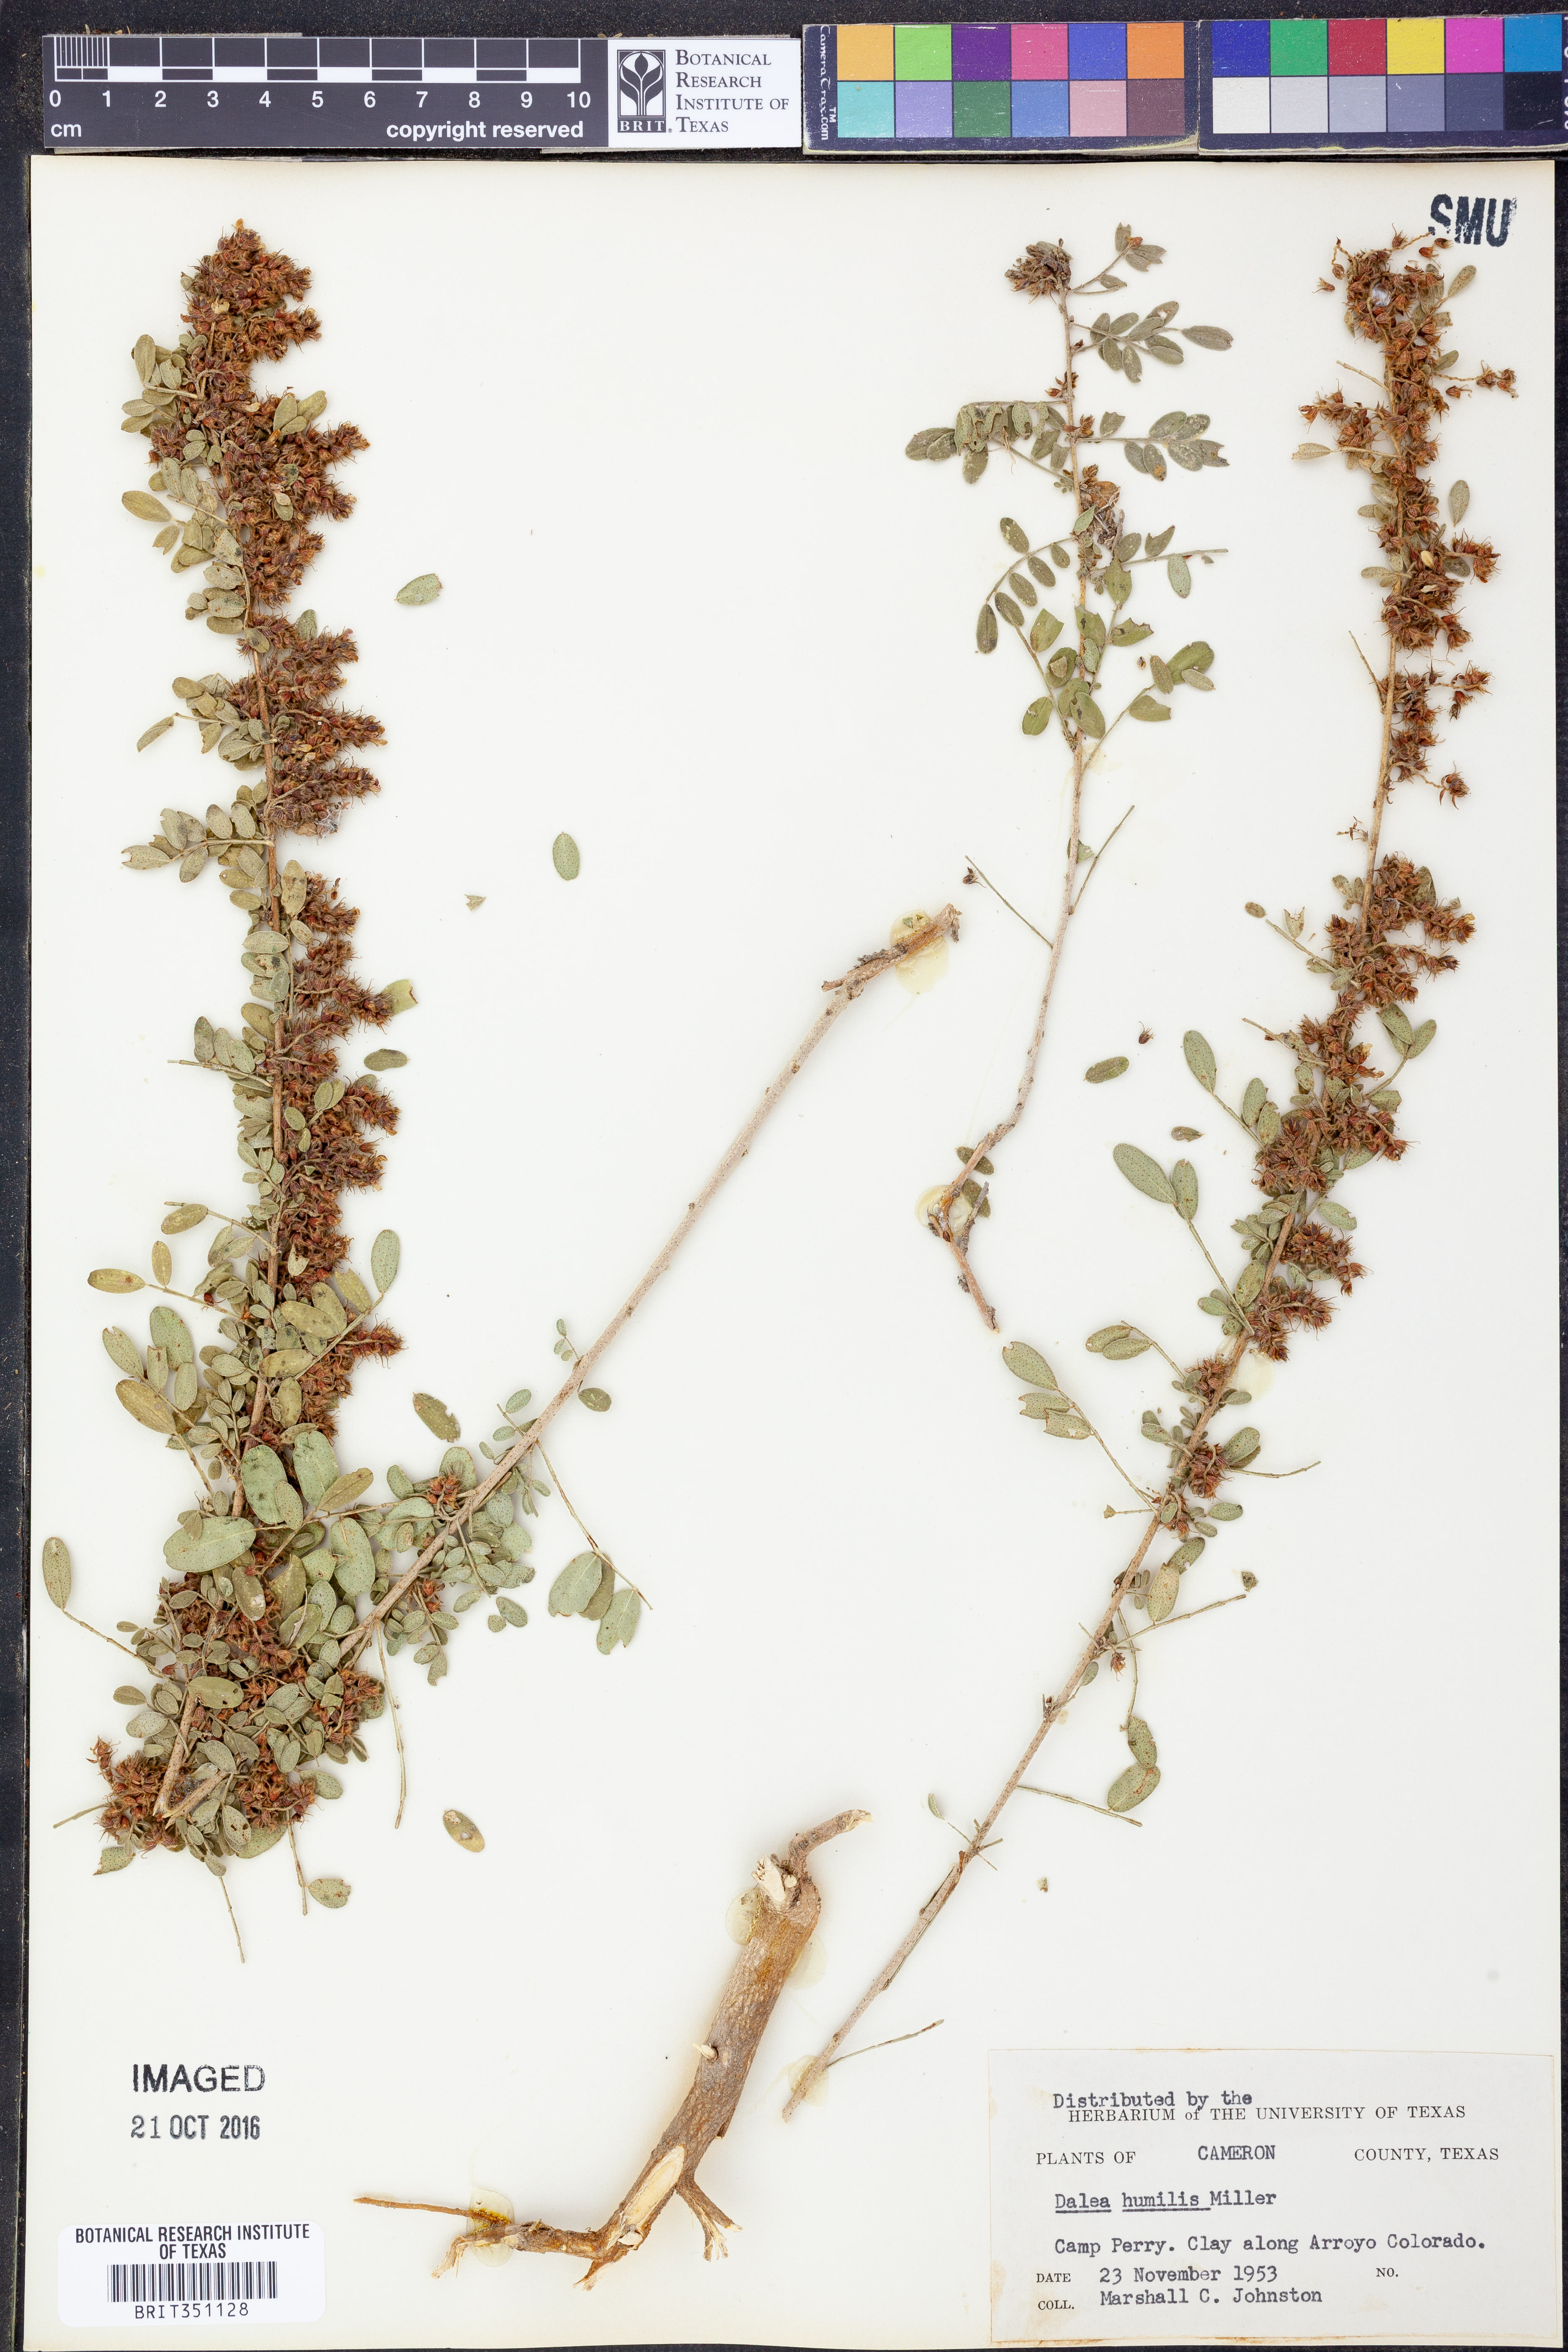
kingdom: Plantae
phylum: Tracheophyta
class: Magnoliopsida
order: Fabales
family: Fabaceae
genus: Dalea
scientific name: Dalea humilis
